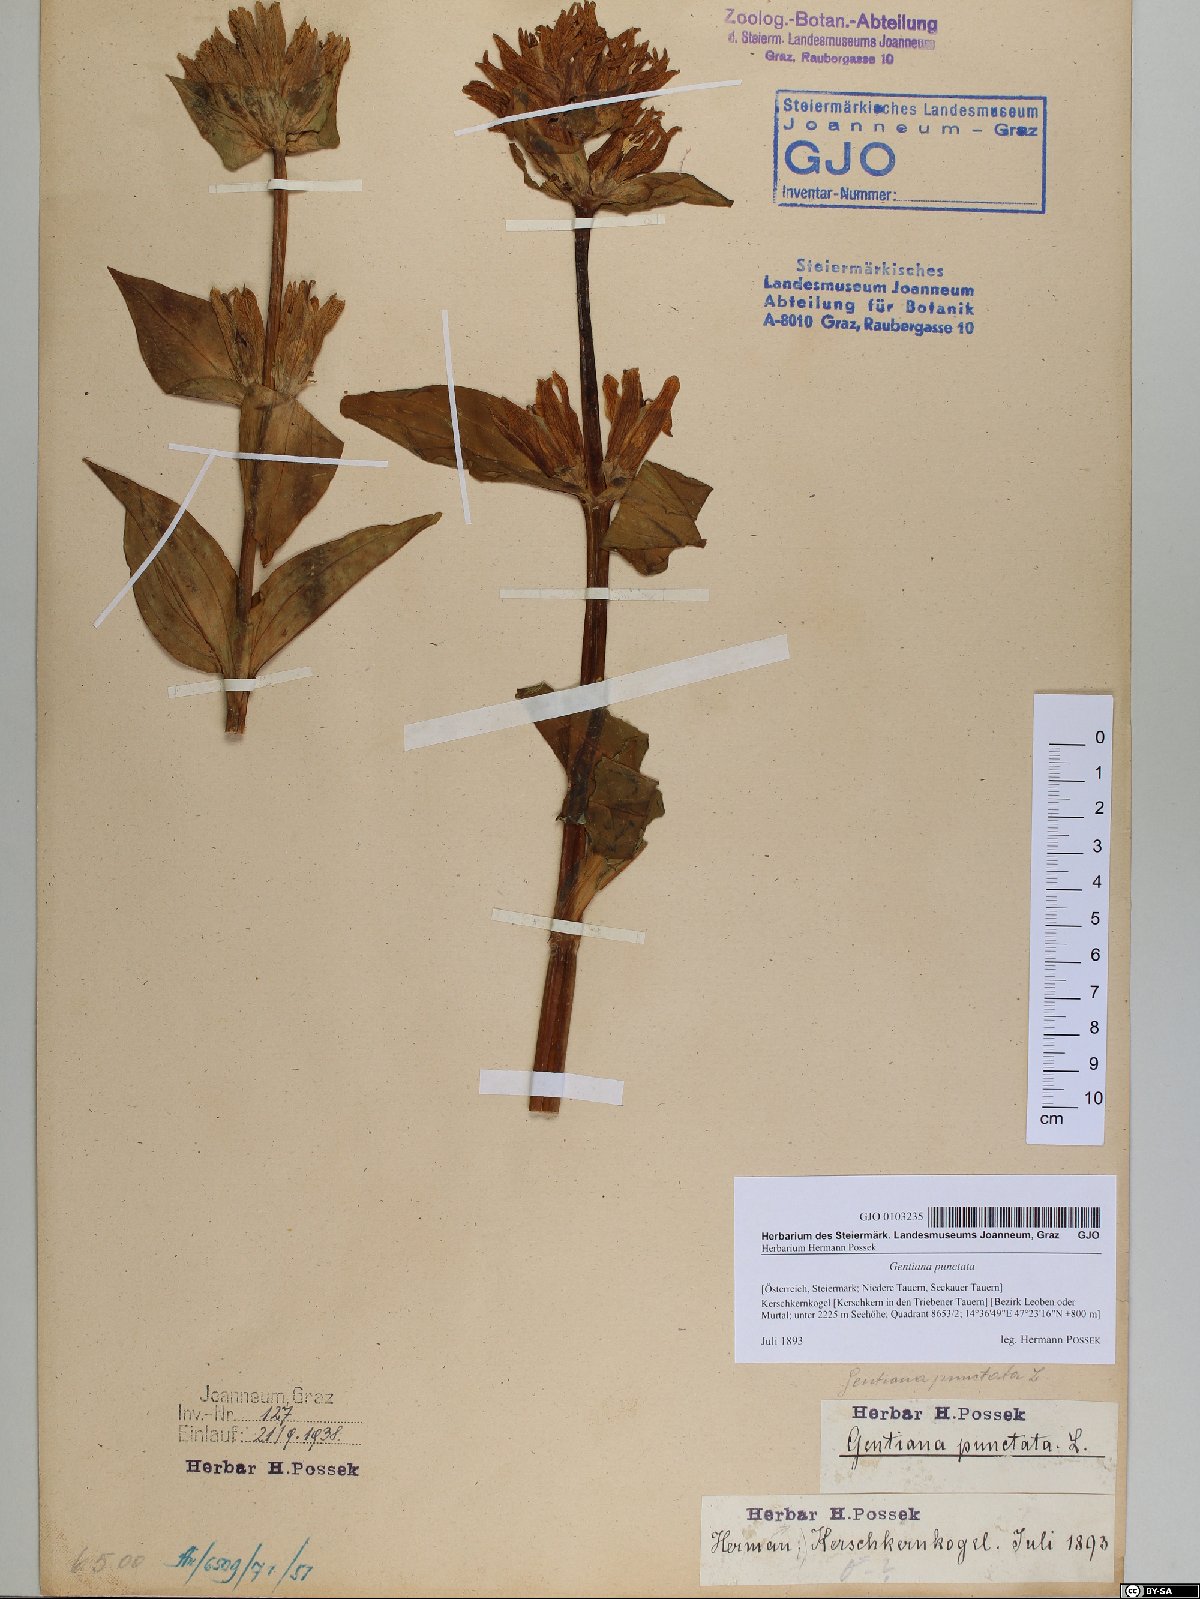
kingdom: Plantae
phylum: Tracheophyta
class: Magnoliopsida
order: Gentianales
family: Gentianaceae
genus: Gentiana
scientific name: Gentiana punctata
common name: Spotted gentian
